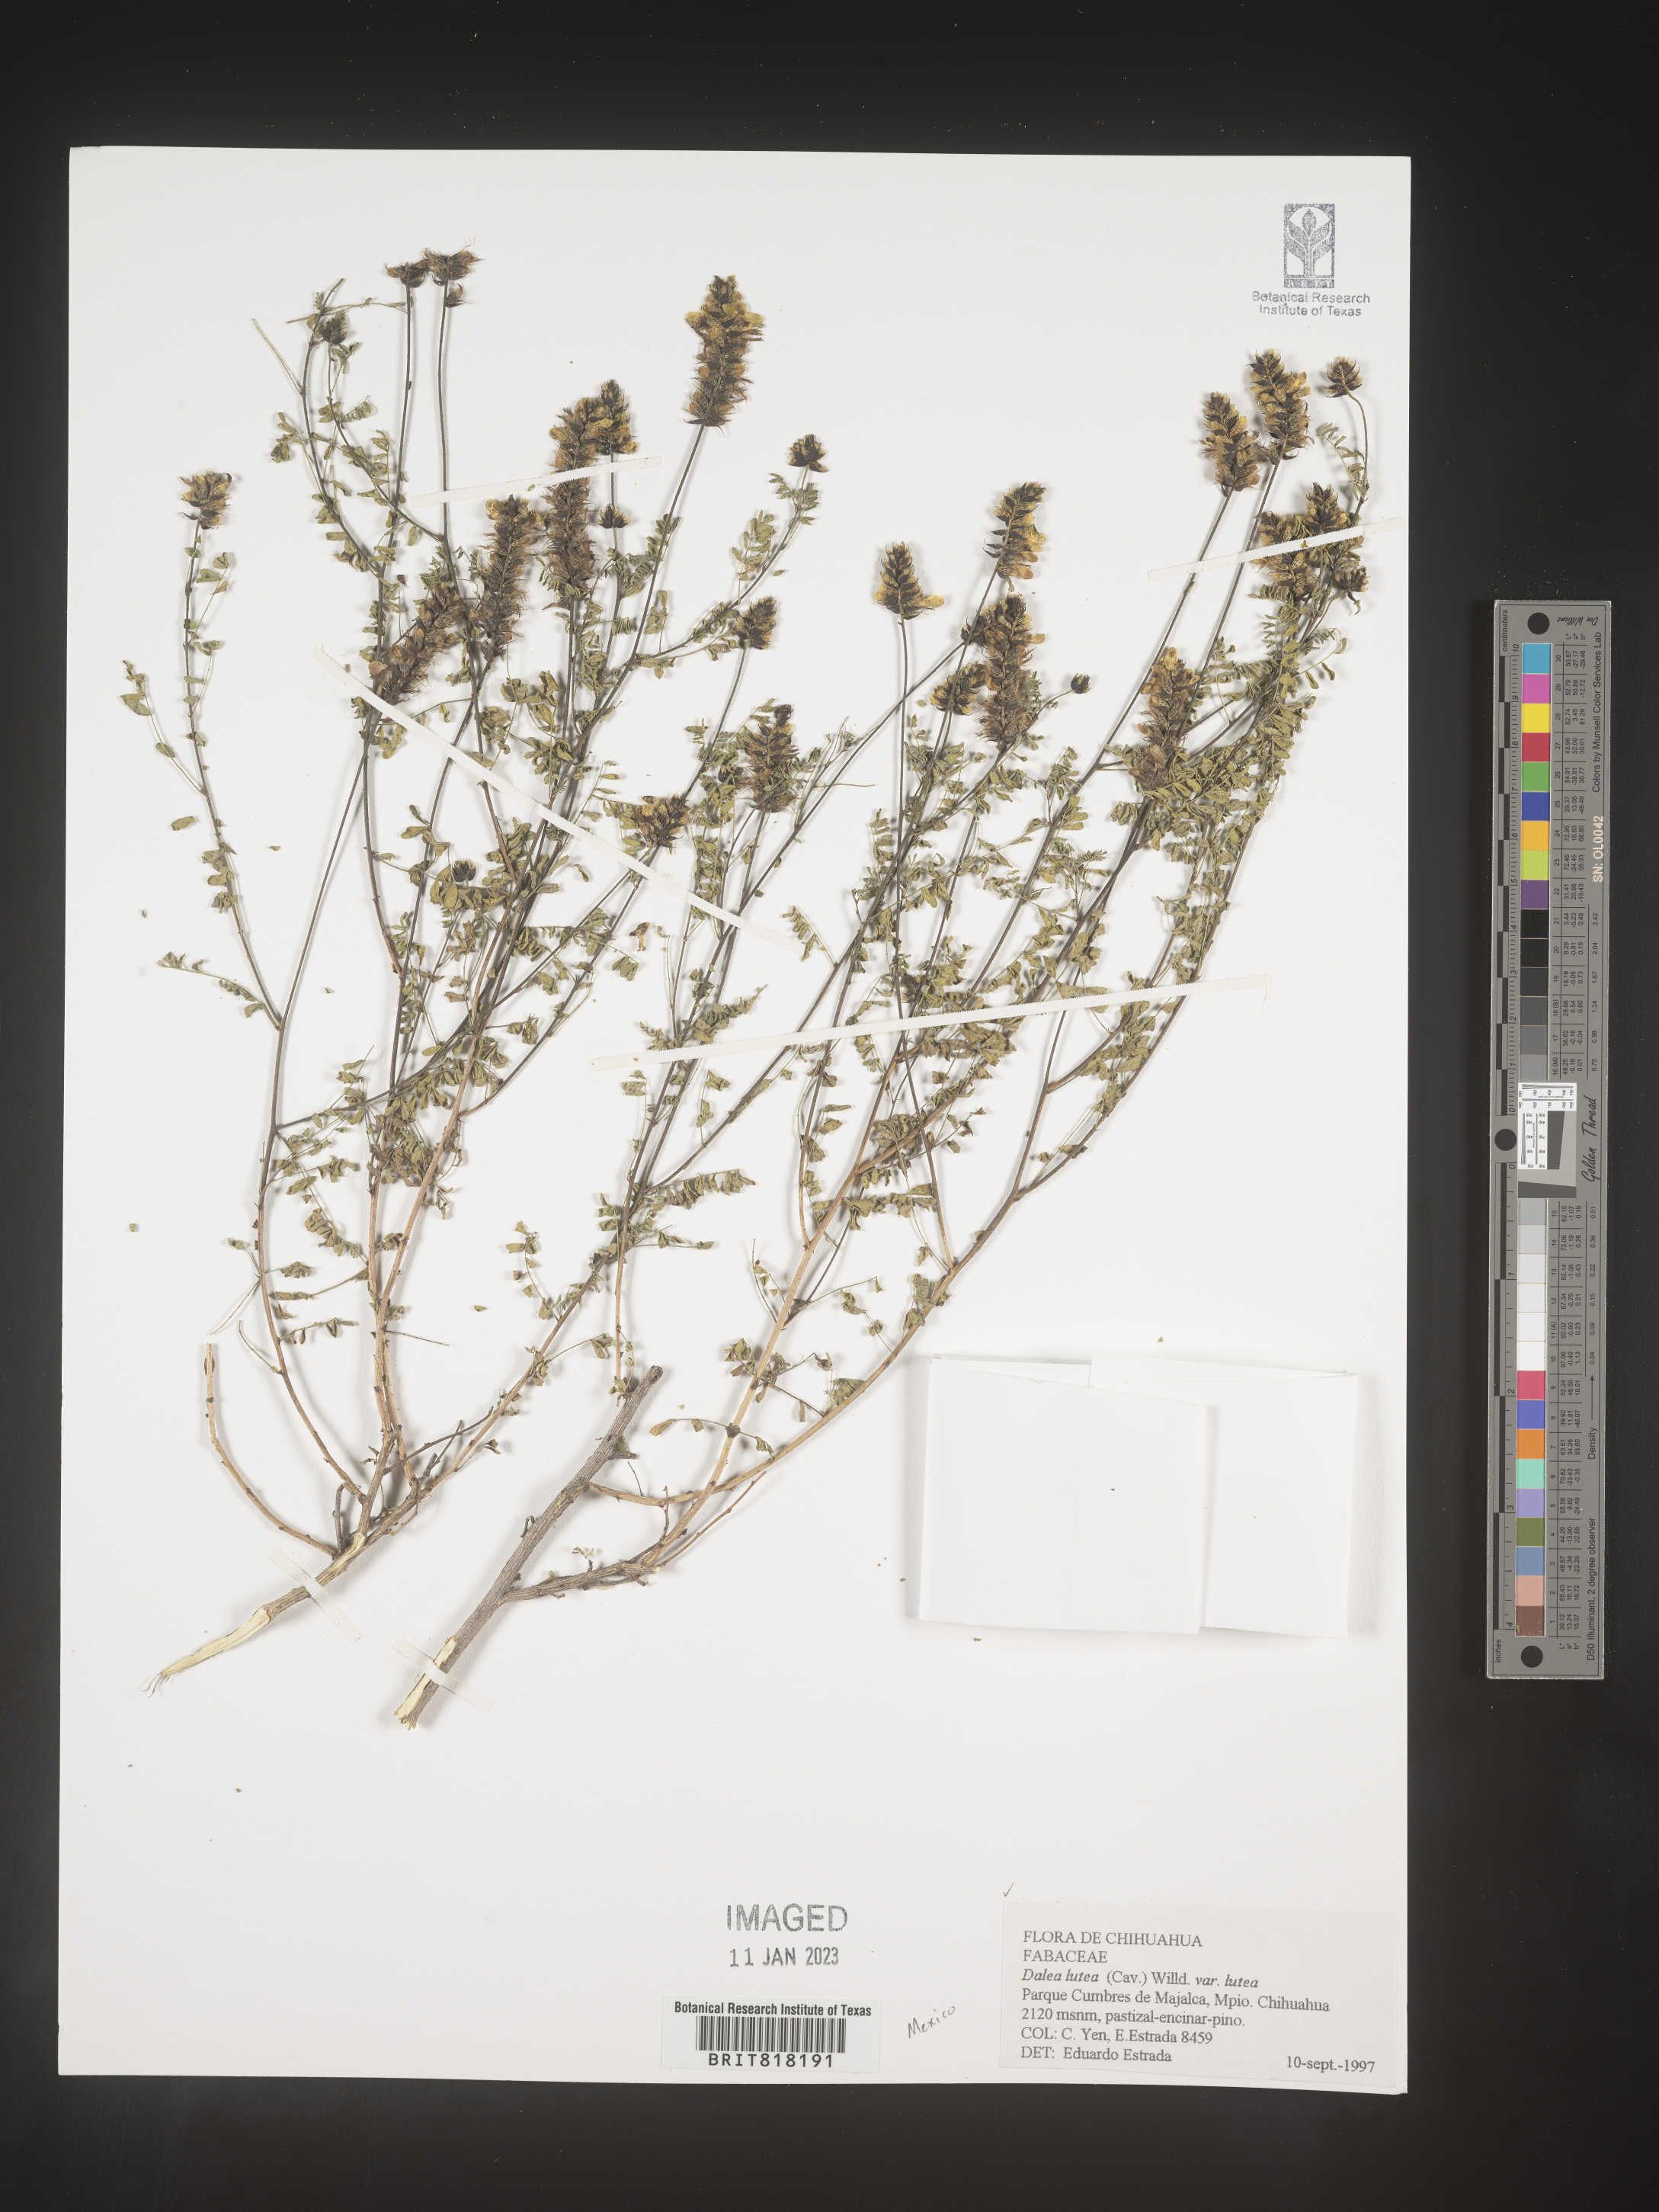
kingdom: Plantae
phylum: Tracheophyta
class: Magnoliopsida
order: Fabales
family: Fabaceae
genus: Dalea
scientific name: Dalea
